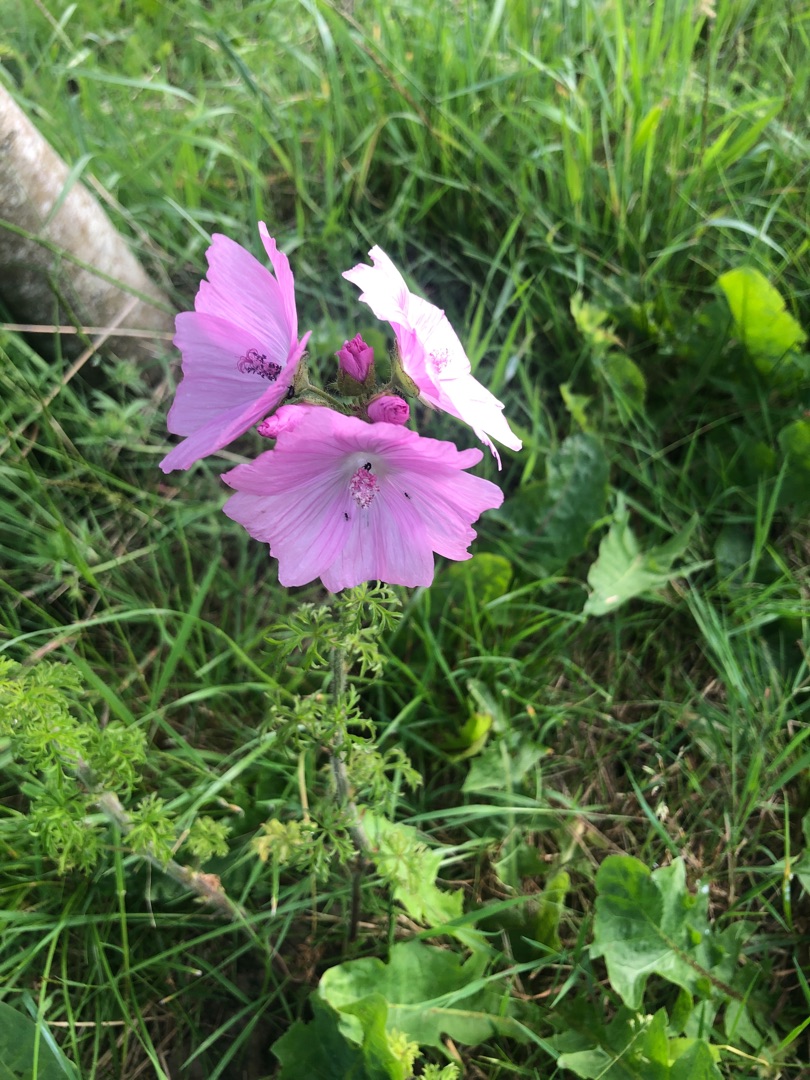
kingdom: Plantae
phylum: Tracheophyta
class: Magnoliopsida
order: Malvales
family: Malvaceae
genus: Malva
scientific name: Malva moschata
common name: Moskus-katost
